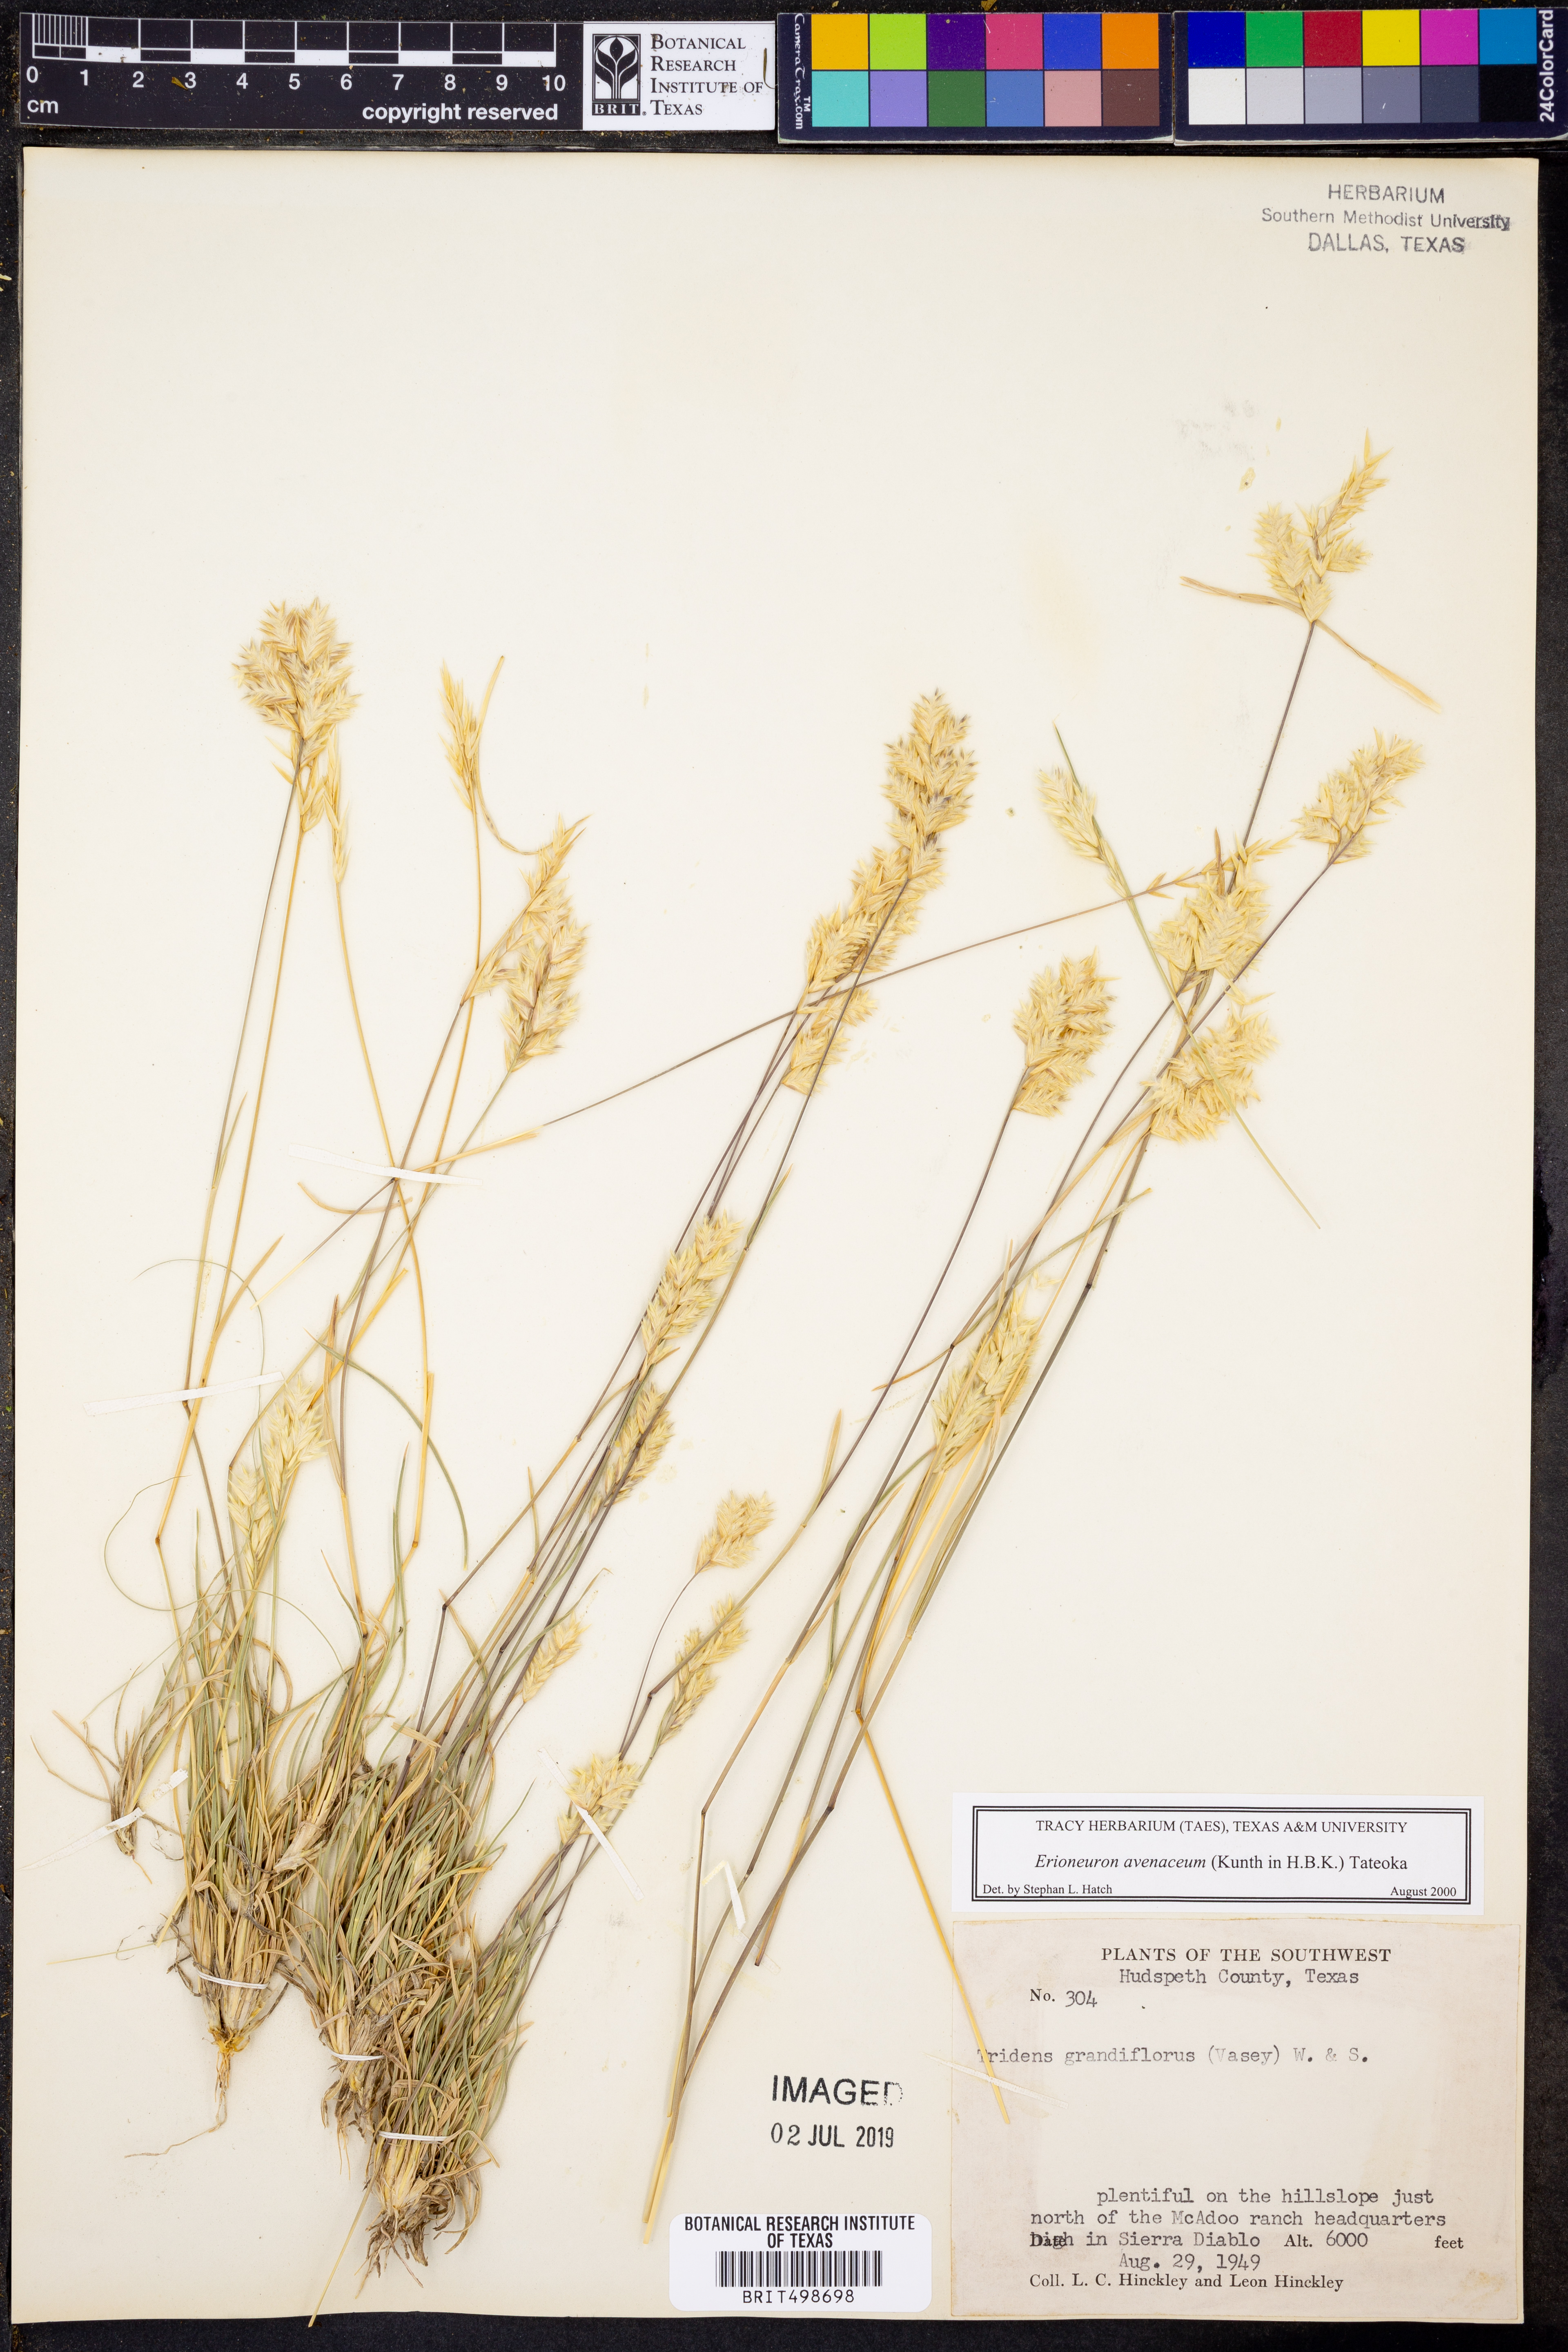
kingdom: Plantae
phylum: Tracheophyta
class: Liliopsida
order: Poales
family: Poaceae
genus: Erioneuron
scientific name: Erioneuron avenaceum
